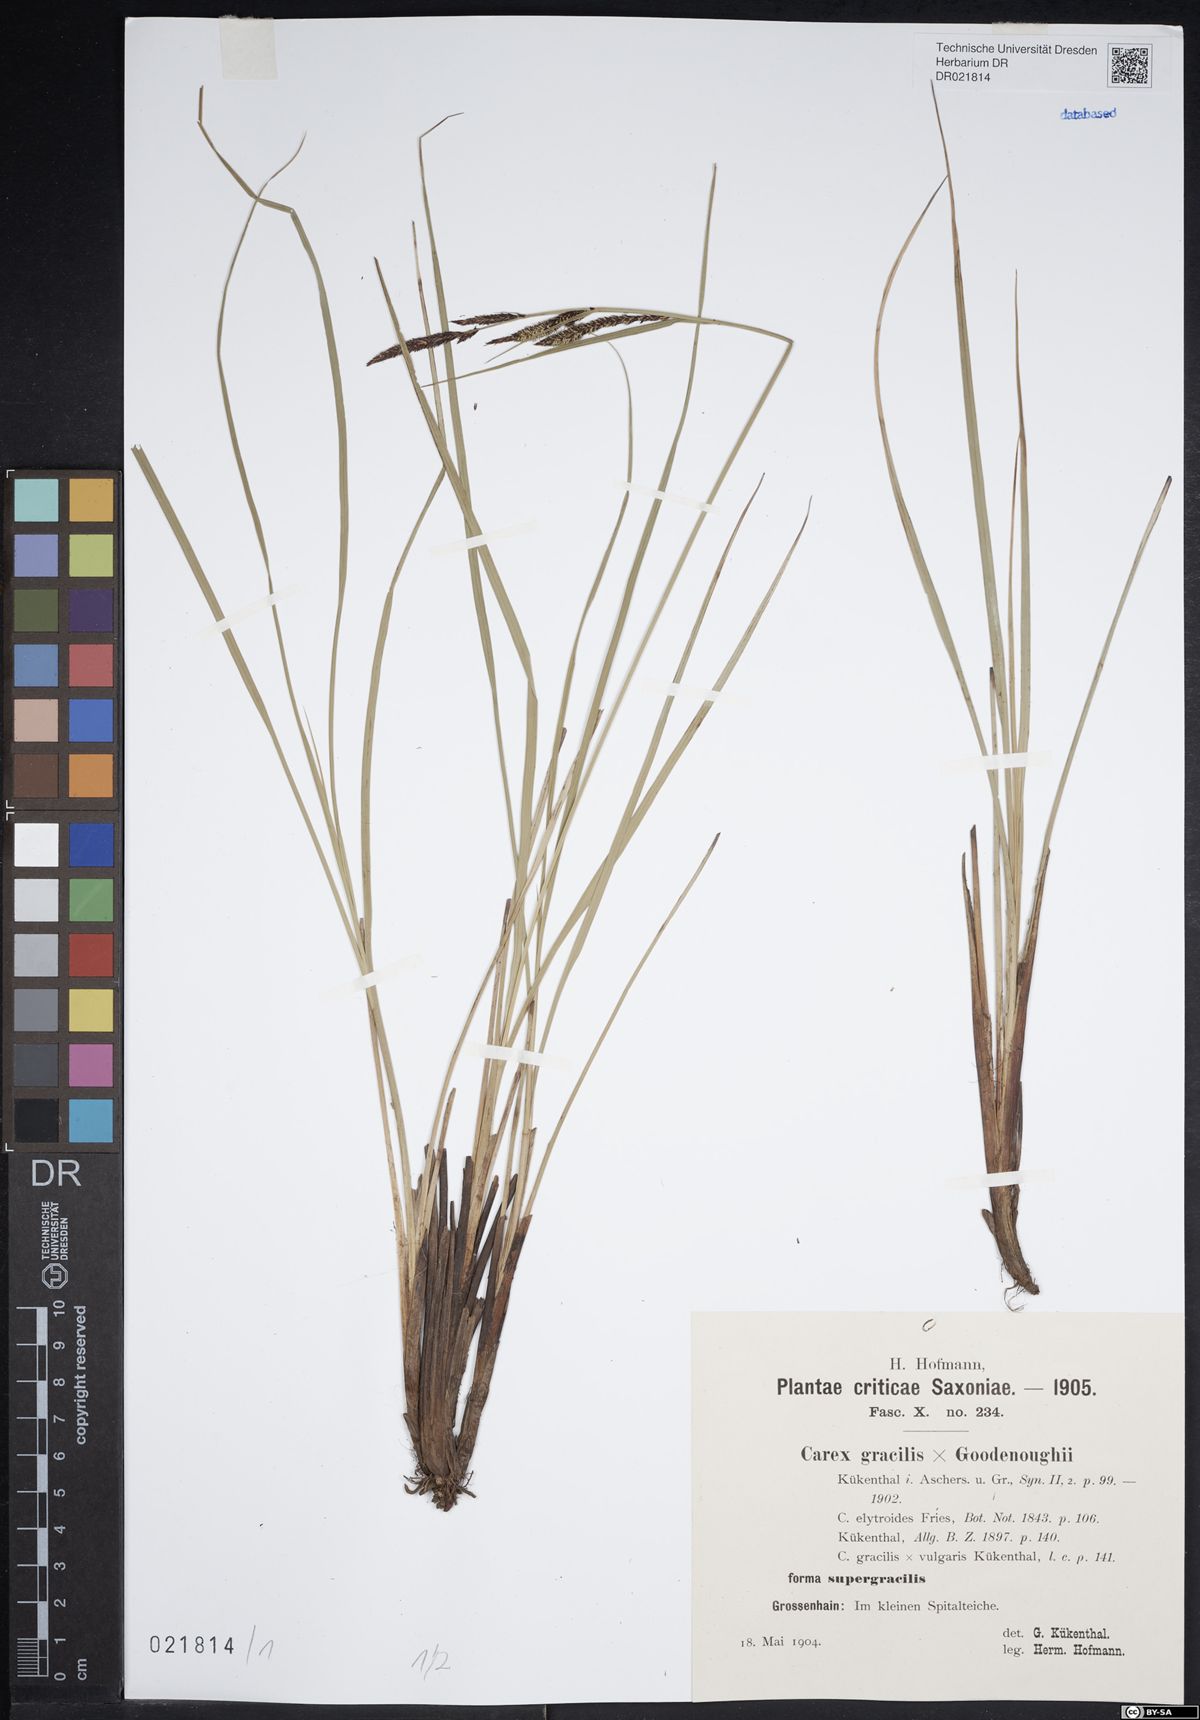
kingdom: Plantae
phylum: Tracheophyta
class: Liliopsida
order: Poales
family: Cyperaceae
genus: Carex
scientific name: Carex elytroides
